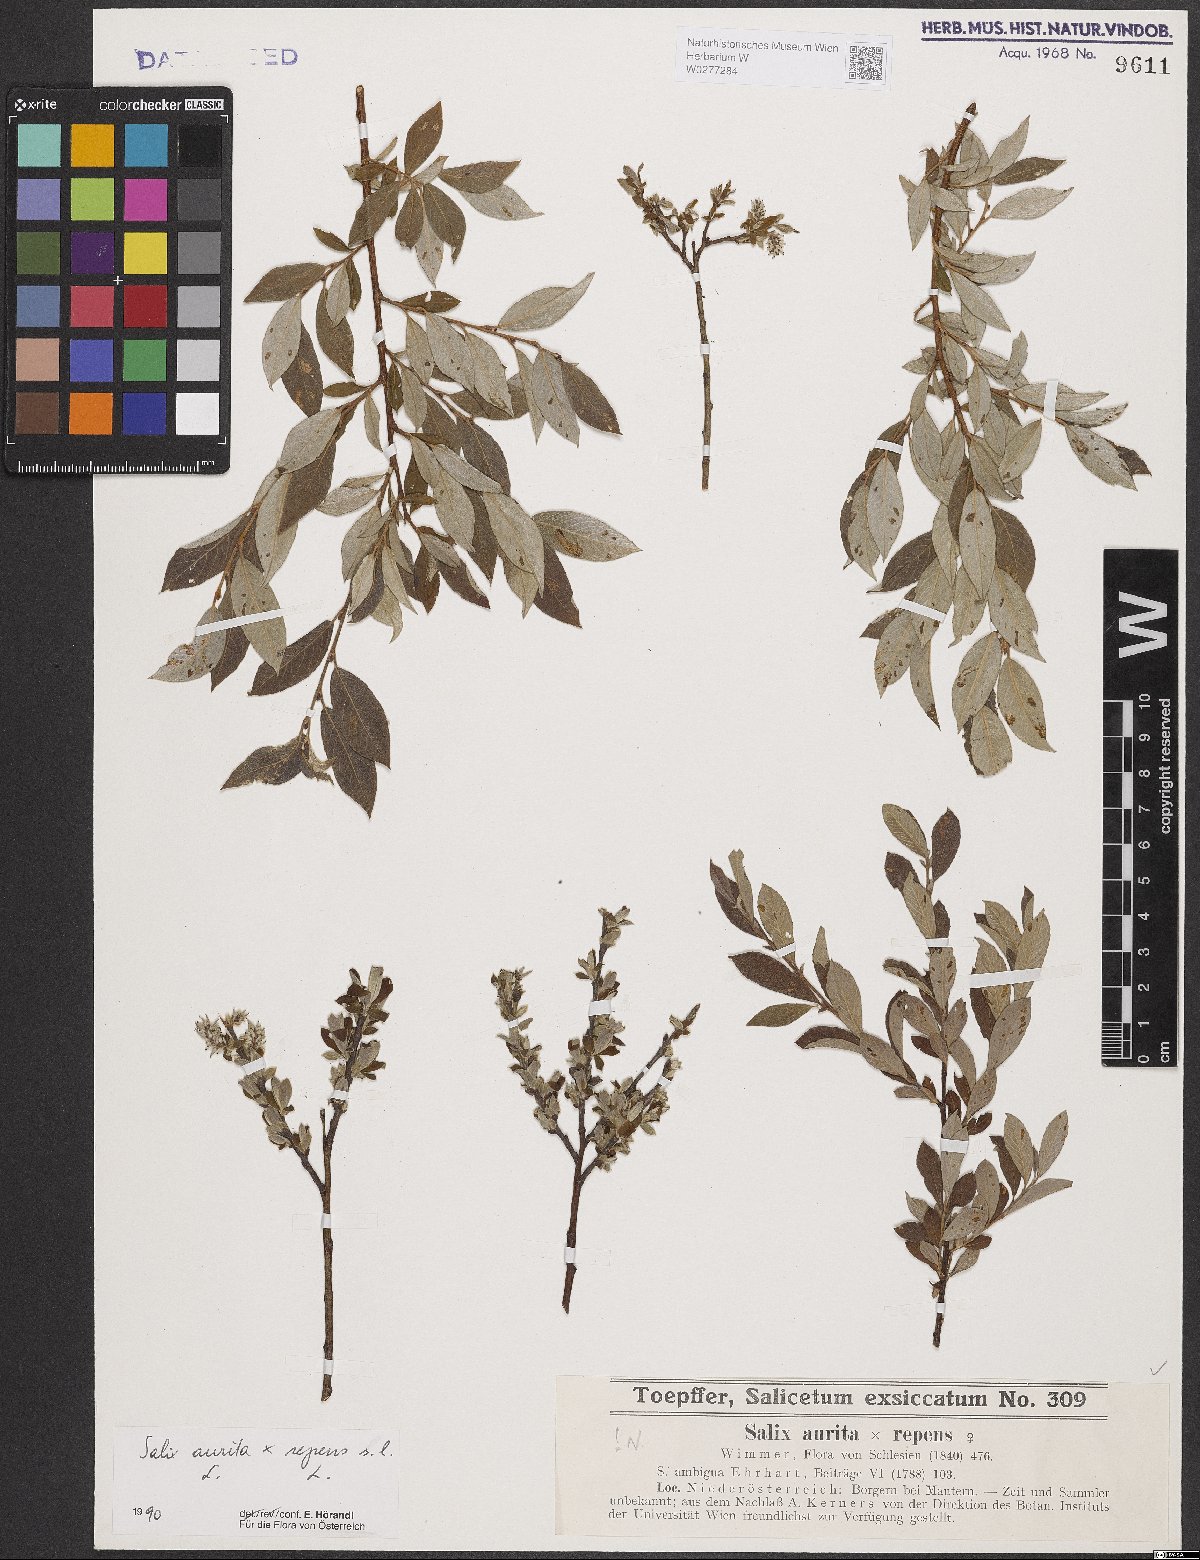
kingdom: Plantae
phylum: Tracheophyta
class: Magnoliopsida
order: Malpighiales
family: Salicaceae
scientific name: Salicaceae
